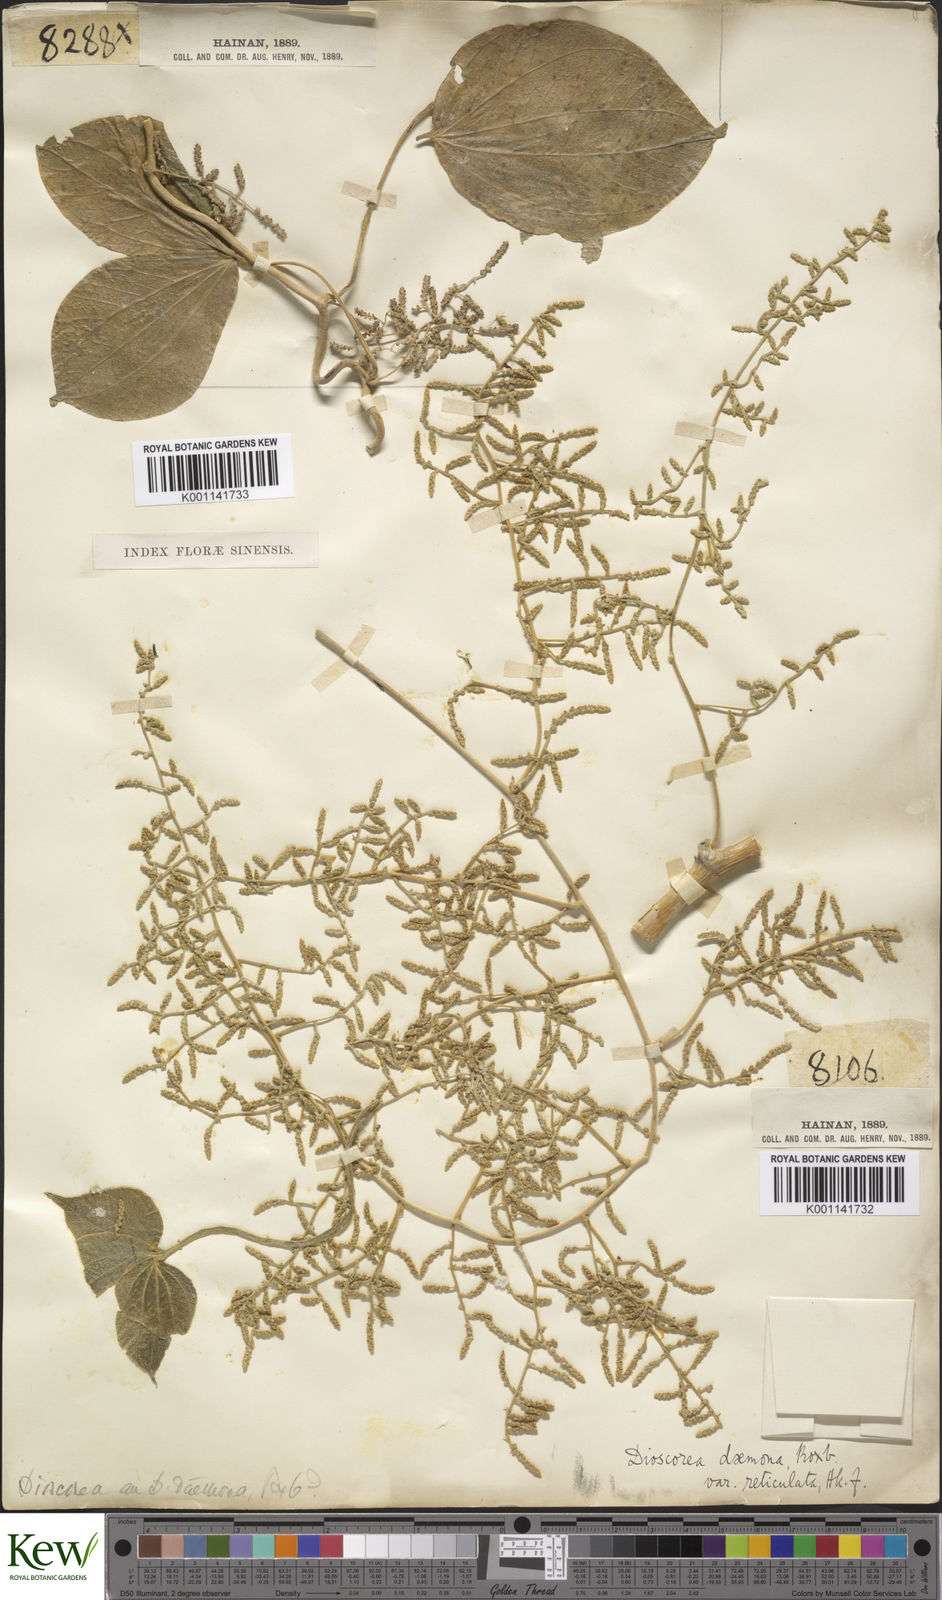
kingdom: Plantae
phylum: Tracheophyta
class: Liliopsida
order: Dioscoreales
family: Dioscoreaceae
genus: Dioscorea
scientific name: Dioscorea hispida
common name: Asiatic bitter yam
